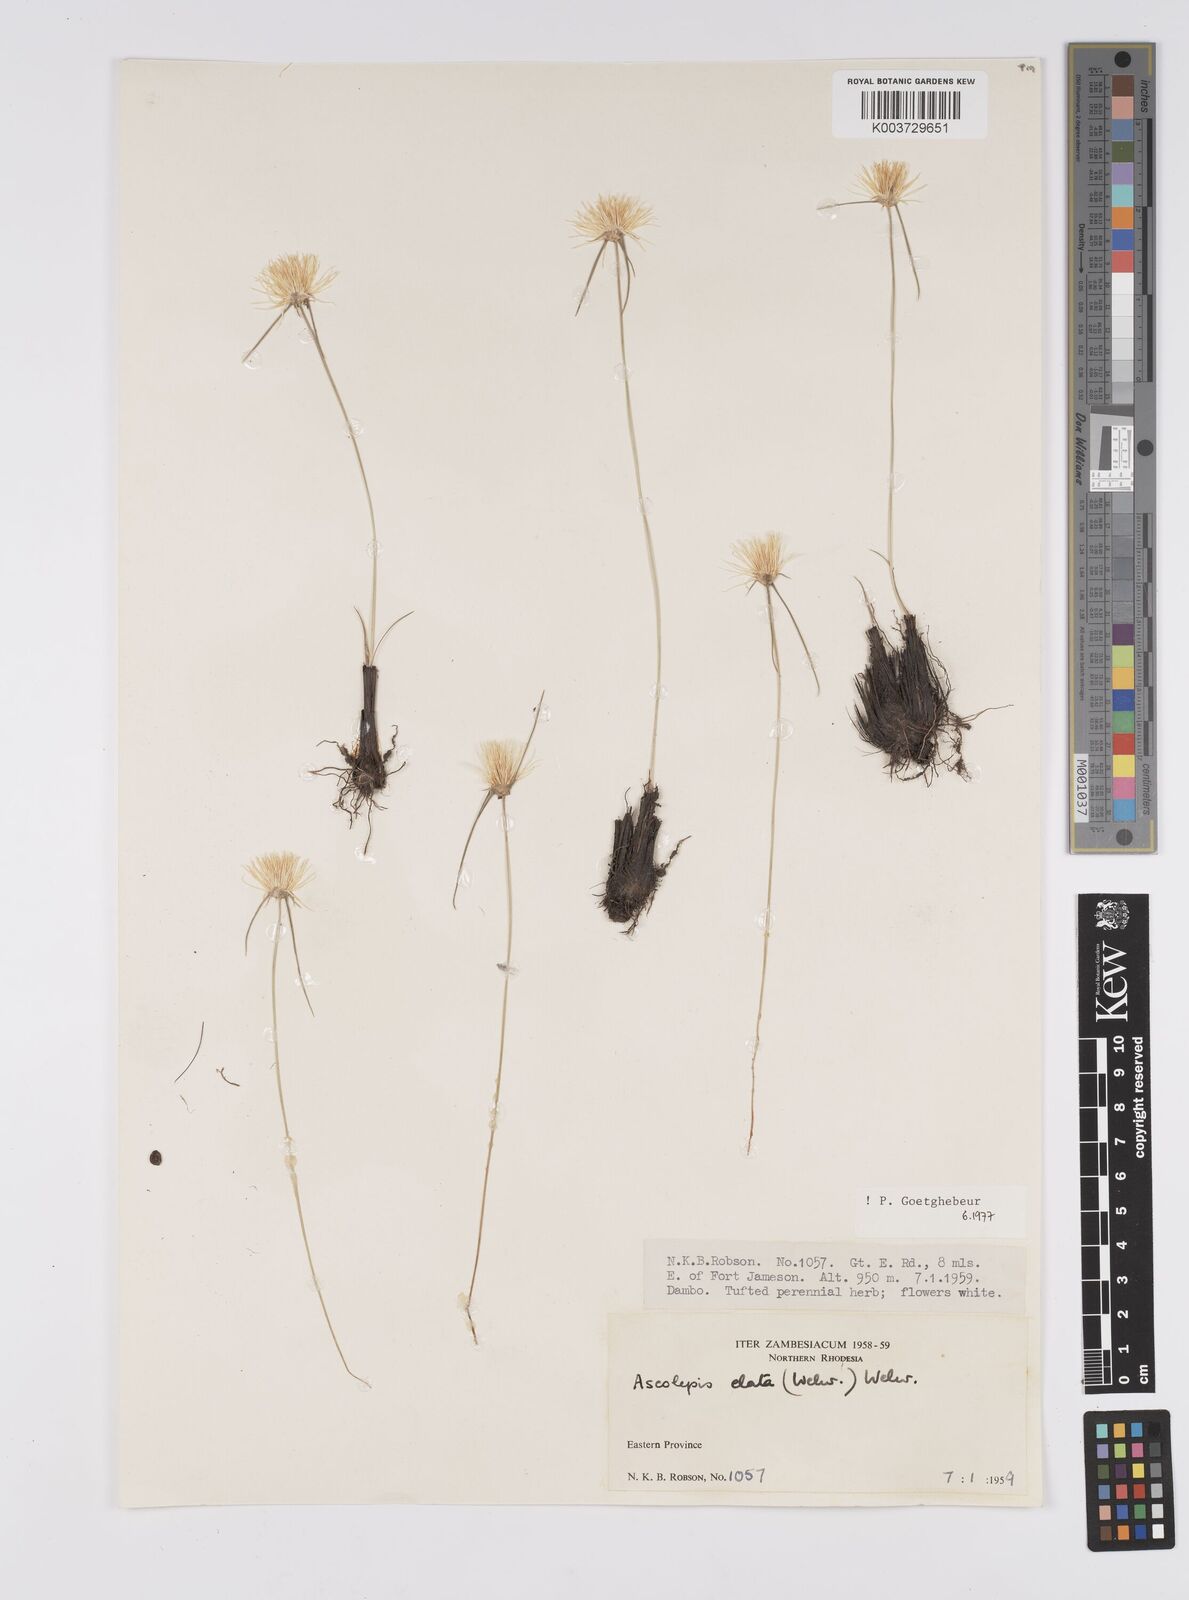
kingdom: Plantae
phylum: Tracheophyta
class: Liliopsida
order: Poales
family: Cyperaceae
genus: Cyperus
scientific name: Cyperus
